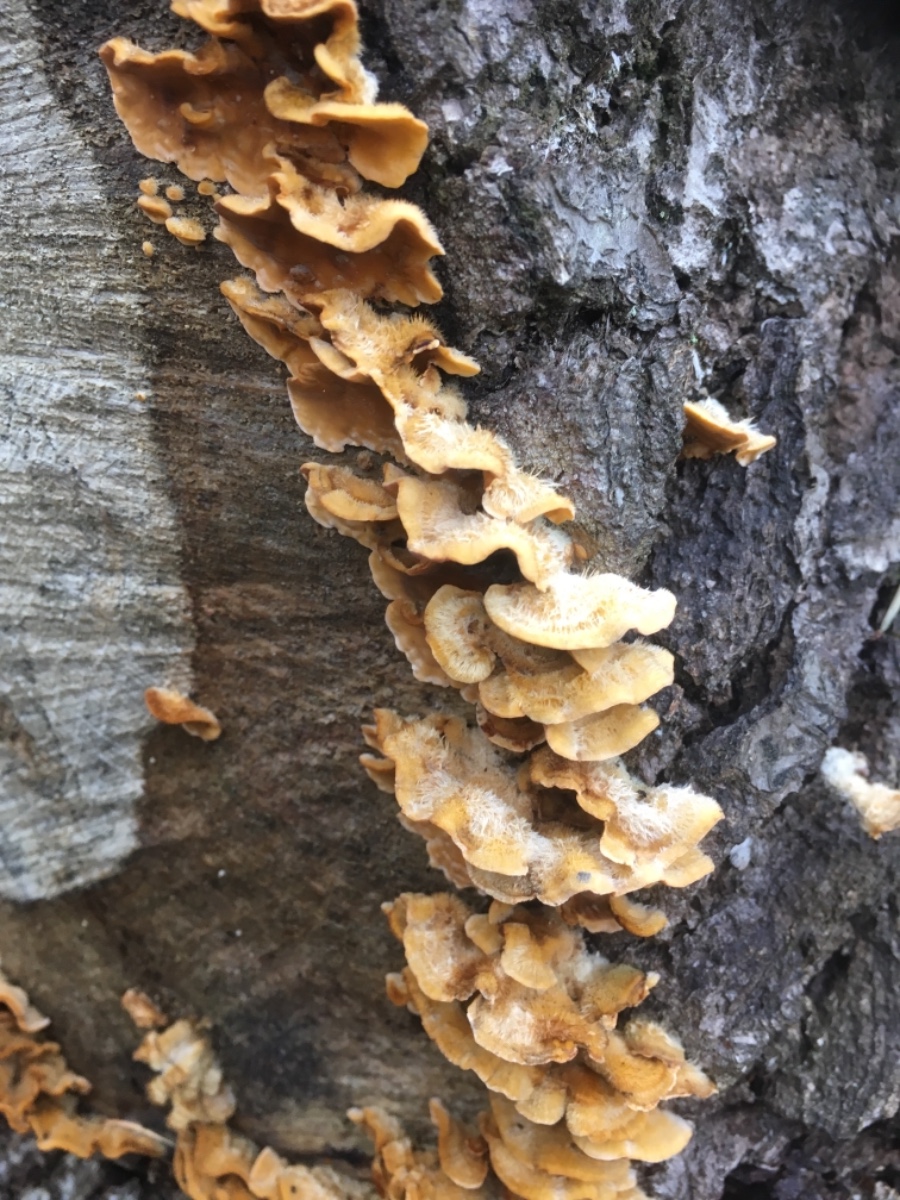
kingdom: Fungi
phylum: Basidiomycota
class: Agaricomycetes
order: Russulales
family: Stereaceae
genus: Stereum
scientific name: Stereum hirsutum
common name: håret lædersvamp
